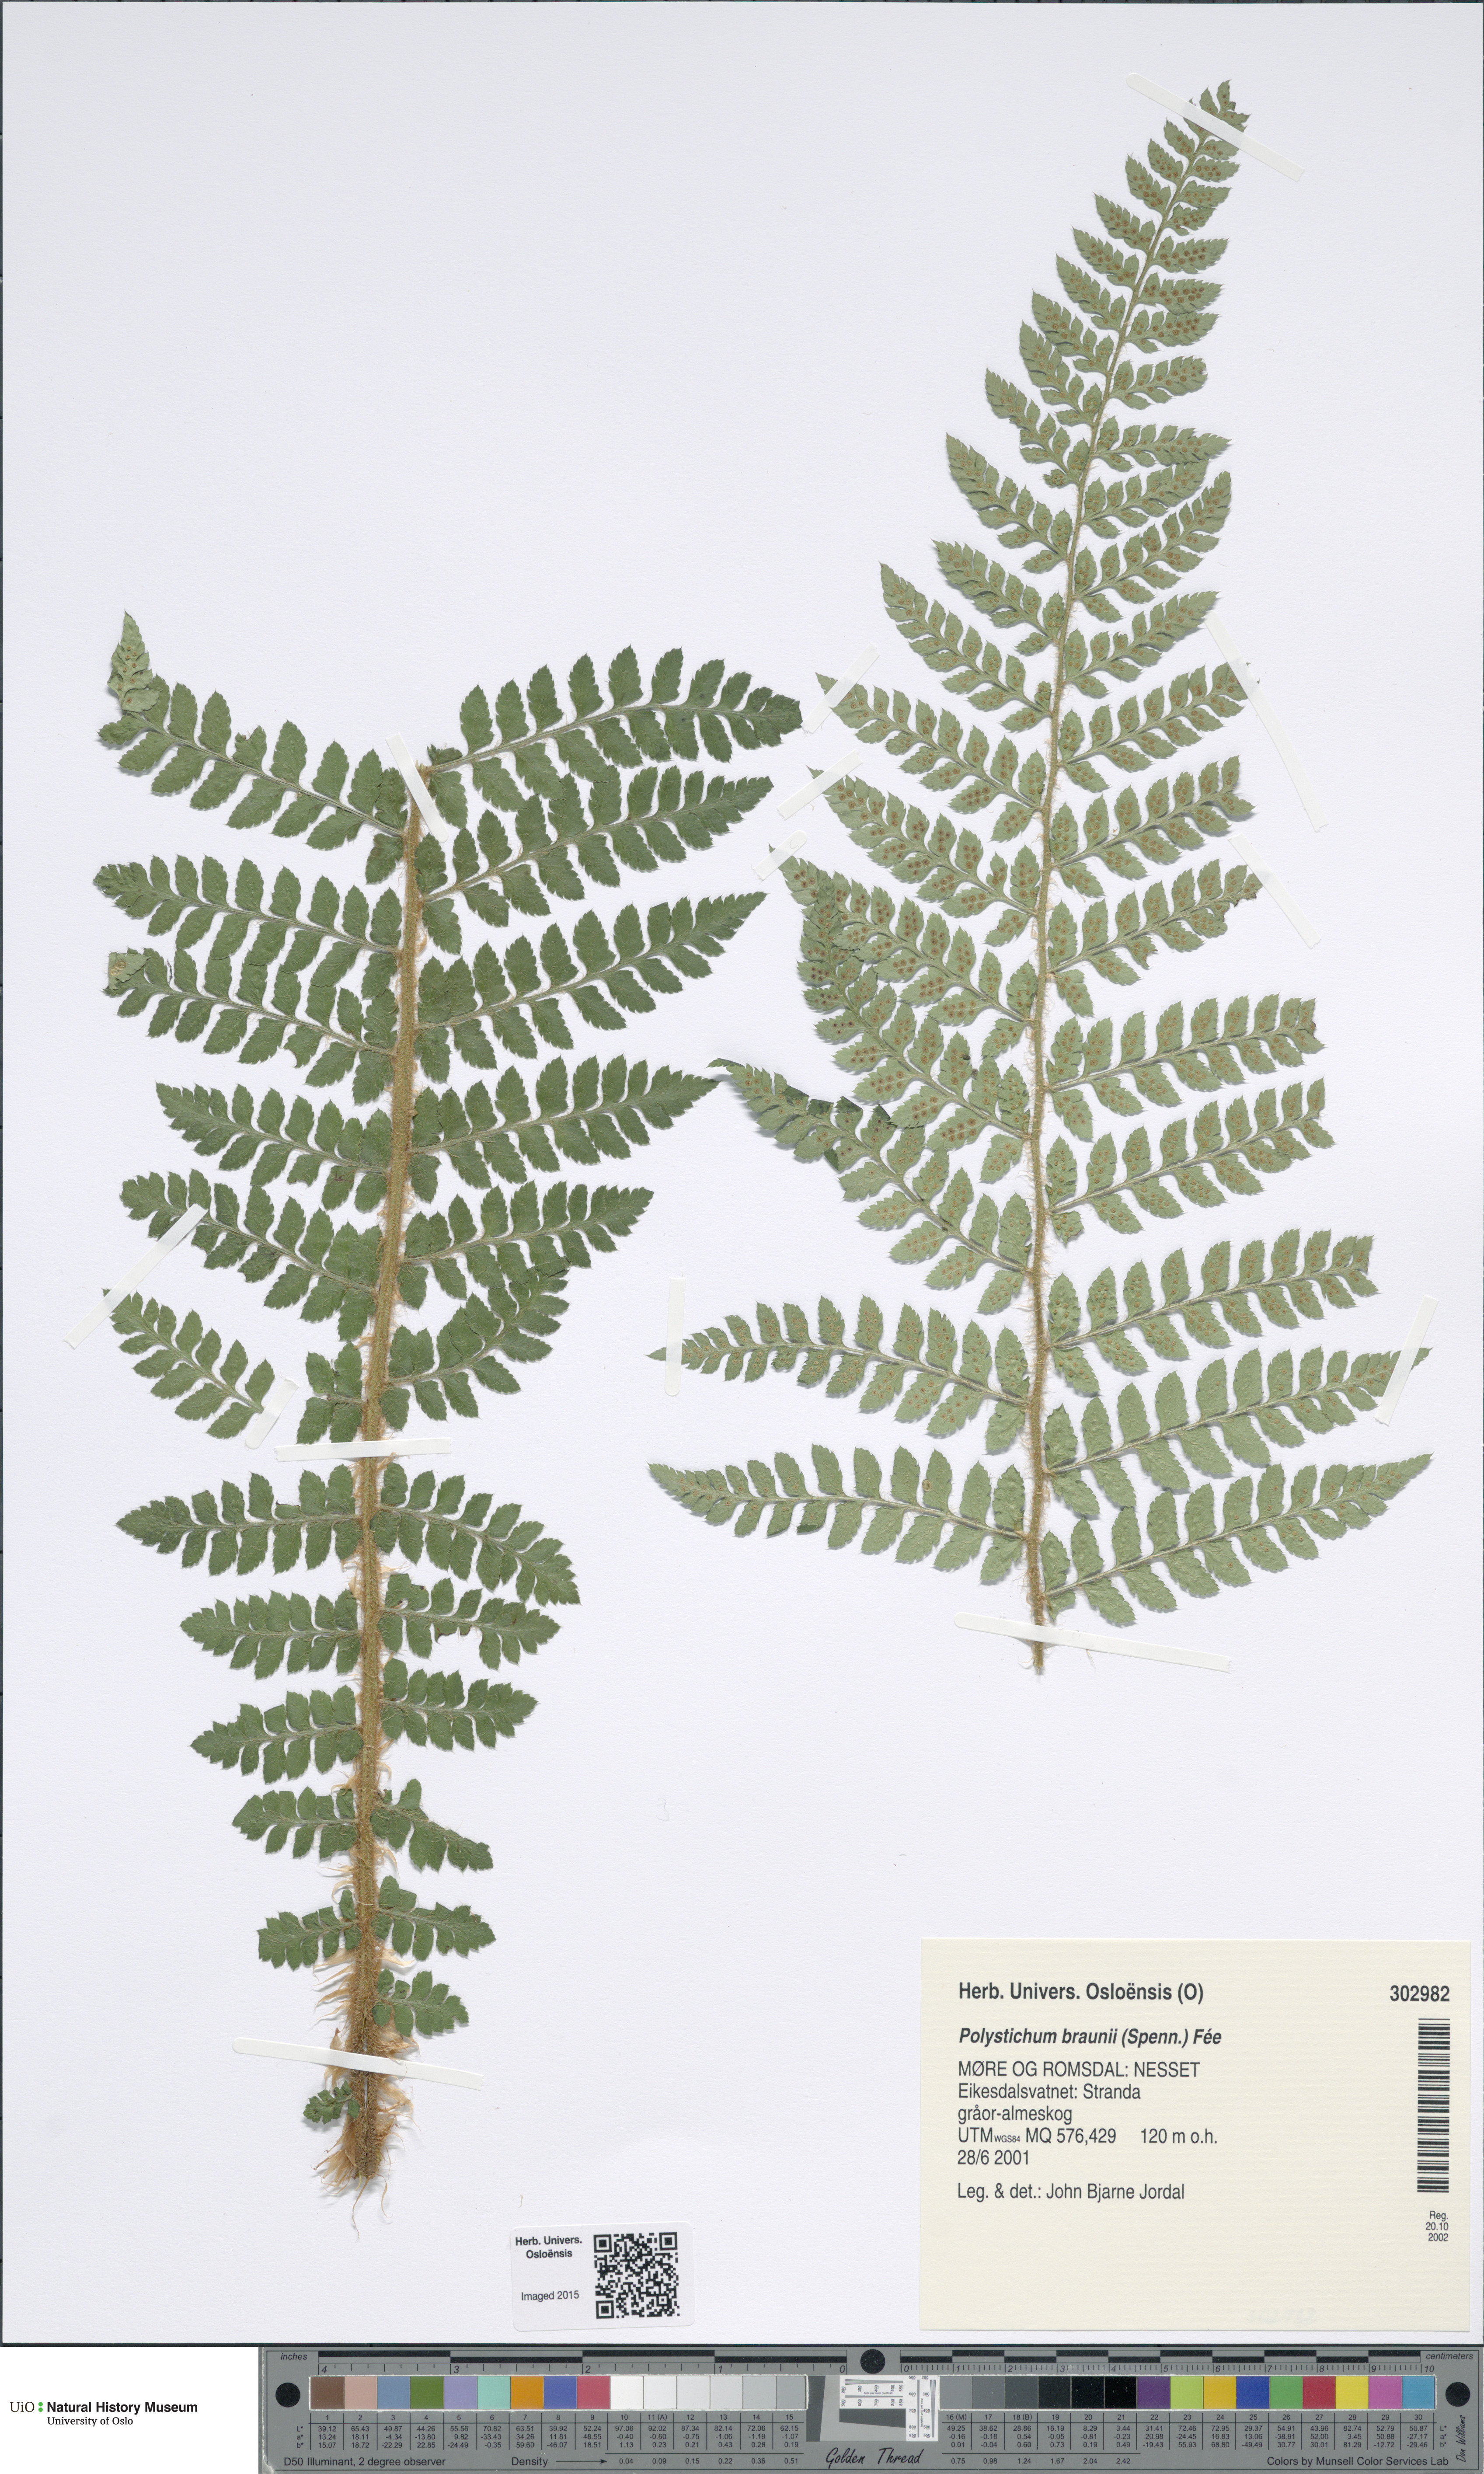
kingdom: Plantae
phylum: Tracheophyta
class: Polypodiopsida
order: Polypodiales
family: Dryopteridaceae
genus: Polystichum
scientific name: Polystichum braunii
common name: Braun's holly fern
